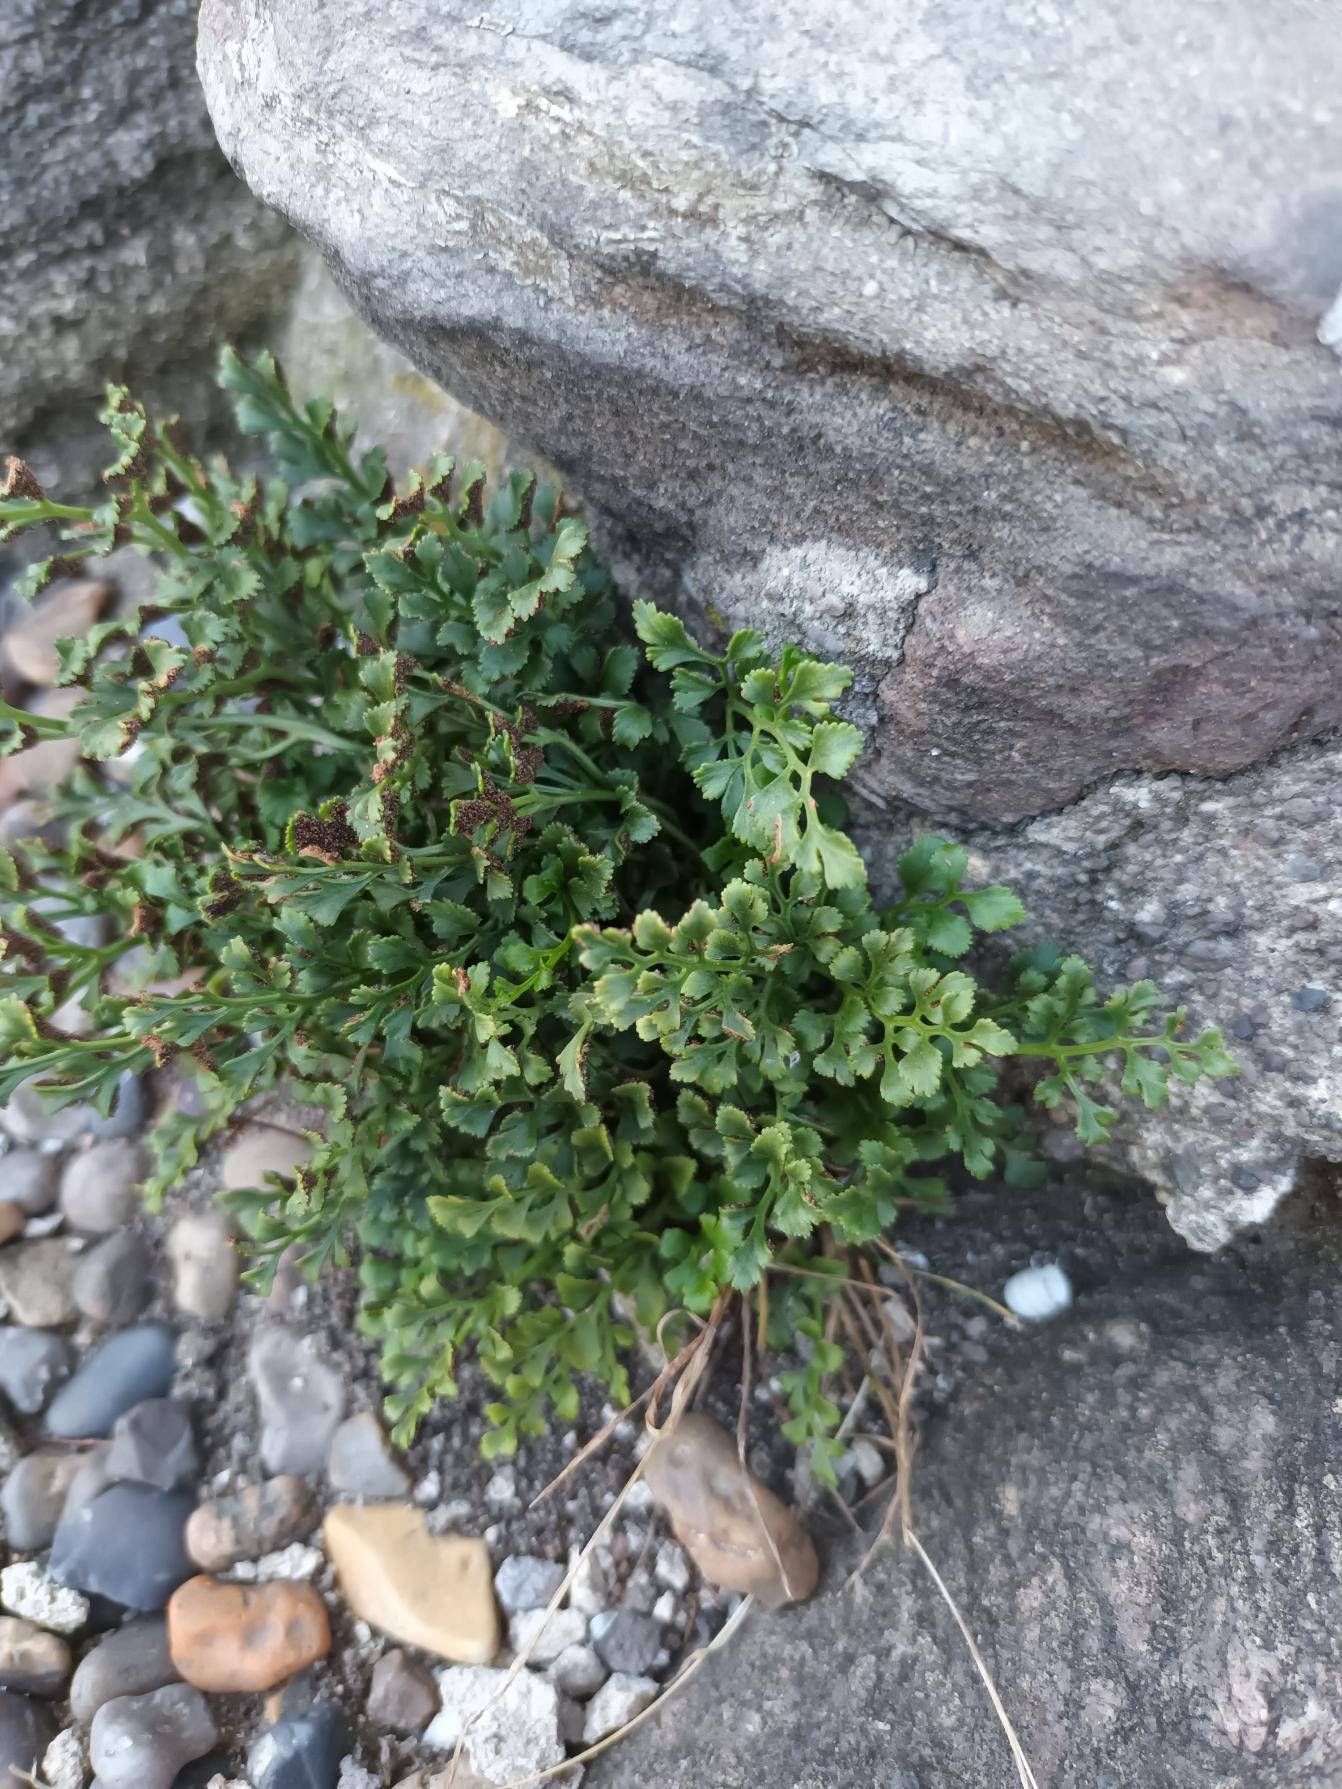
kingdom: Plantae
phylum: Tracheophyta
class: Polypodiopsida
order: Polypodiales
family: Aspleniaceae
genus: Asplenium
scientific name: Asplenium ruta-muraria
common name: Murrude
